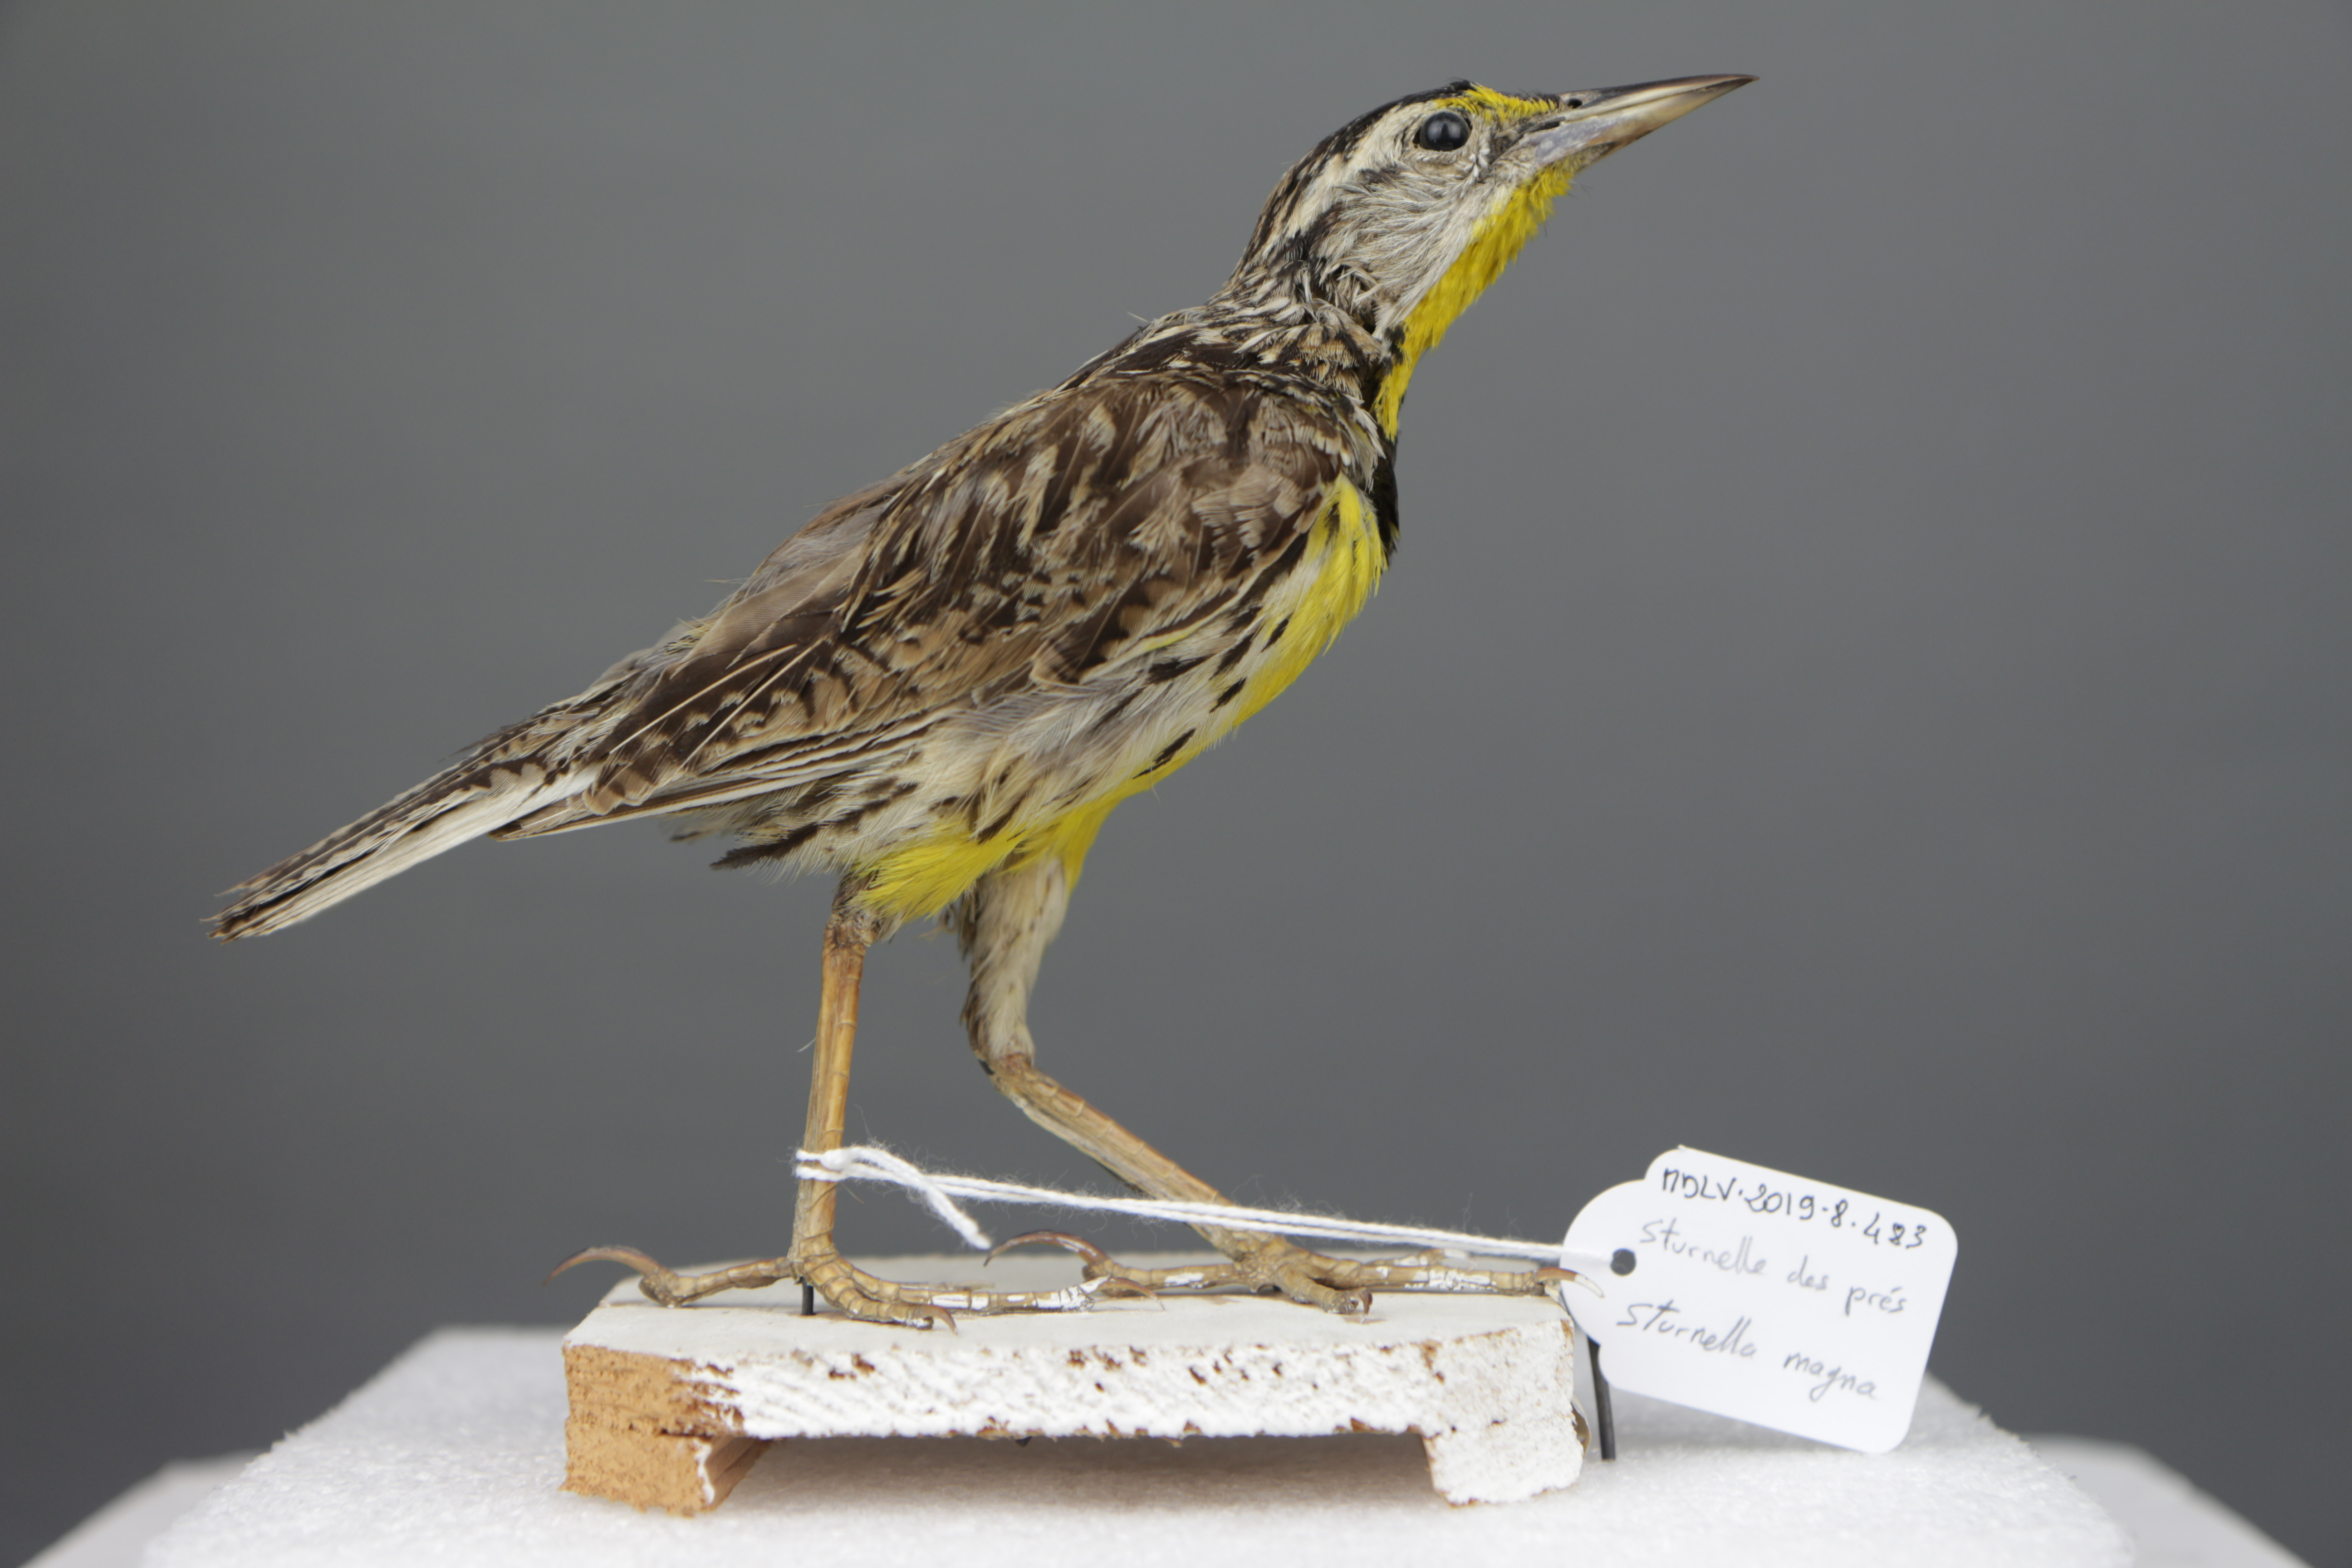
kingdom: Animalia
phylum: Chordata
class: Aves
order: Passeriformes
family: Icteridae
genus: Sturnella
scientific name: Sturnella magna
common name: Eastern meadowlark
